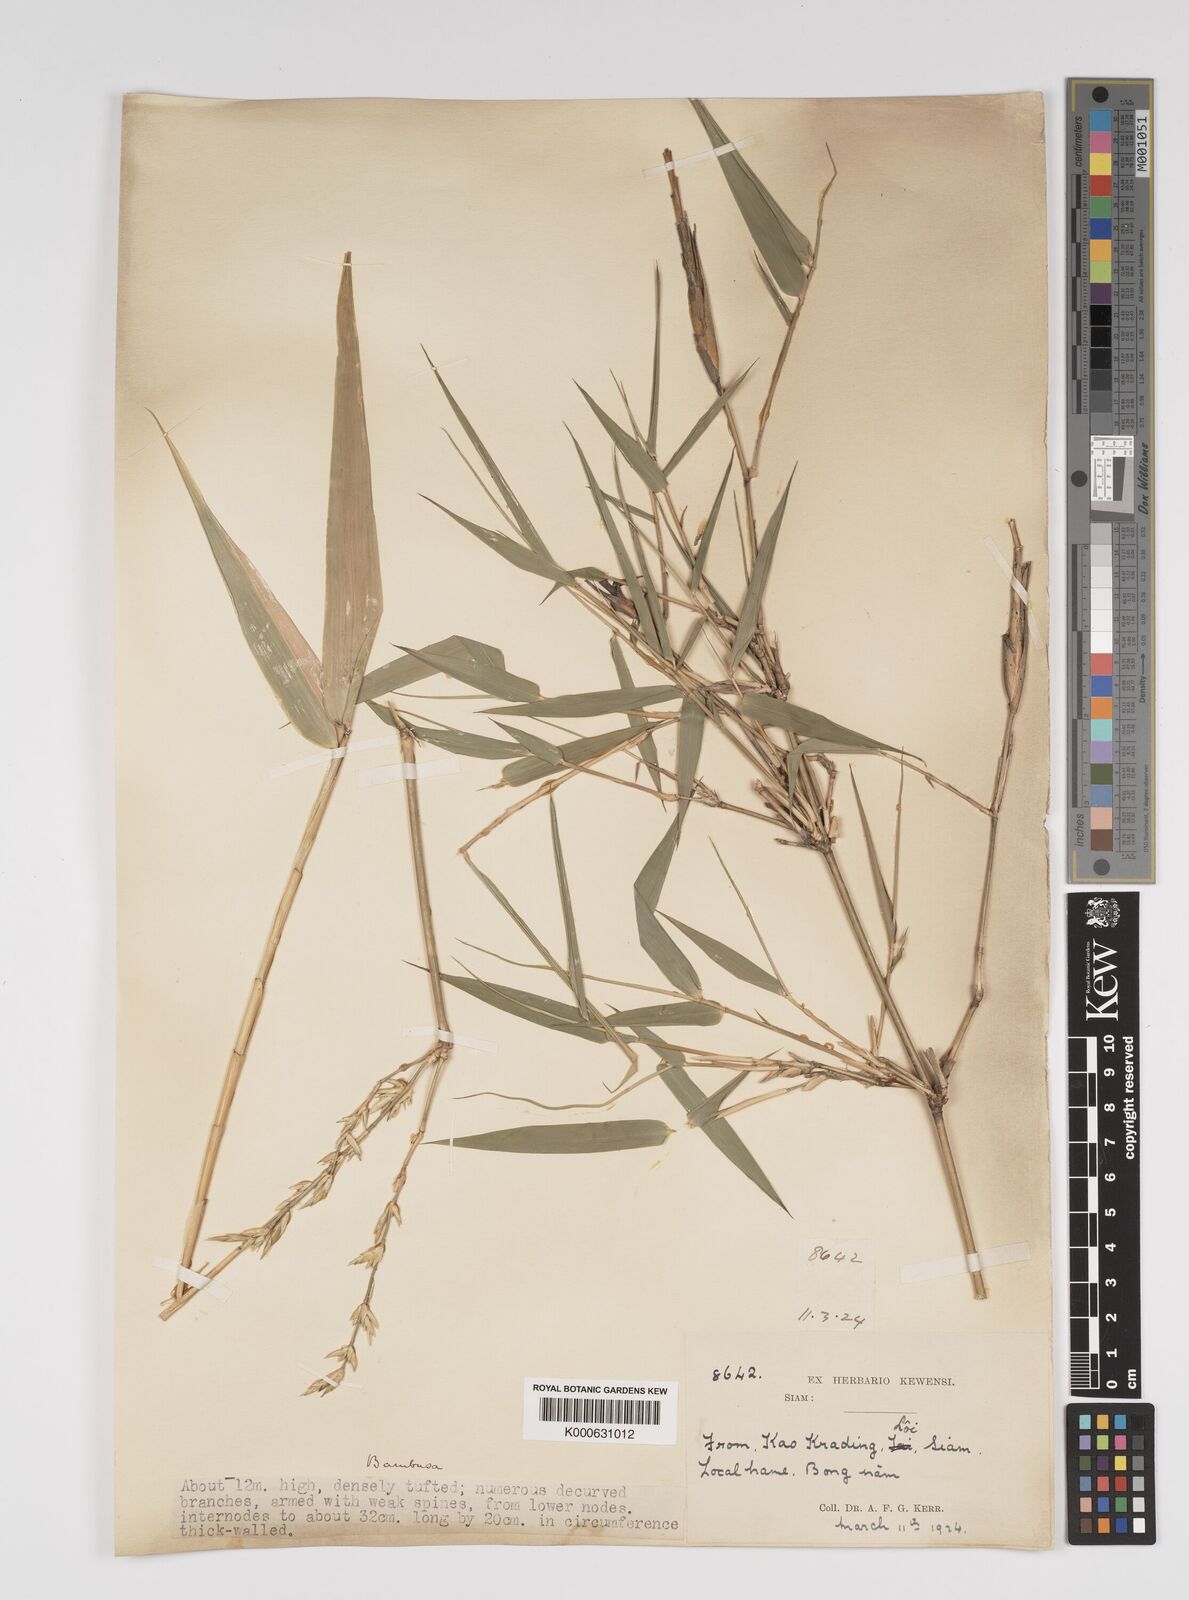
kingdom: Plantae
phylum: Tracheophyta
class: Liliopsida
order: Poales
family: Poaceae
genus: Bambusa
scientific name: Bambusa
